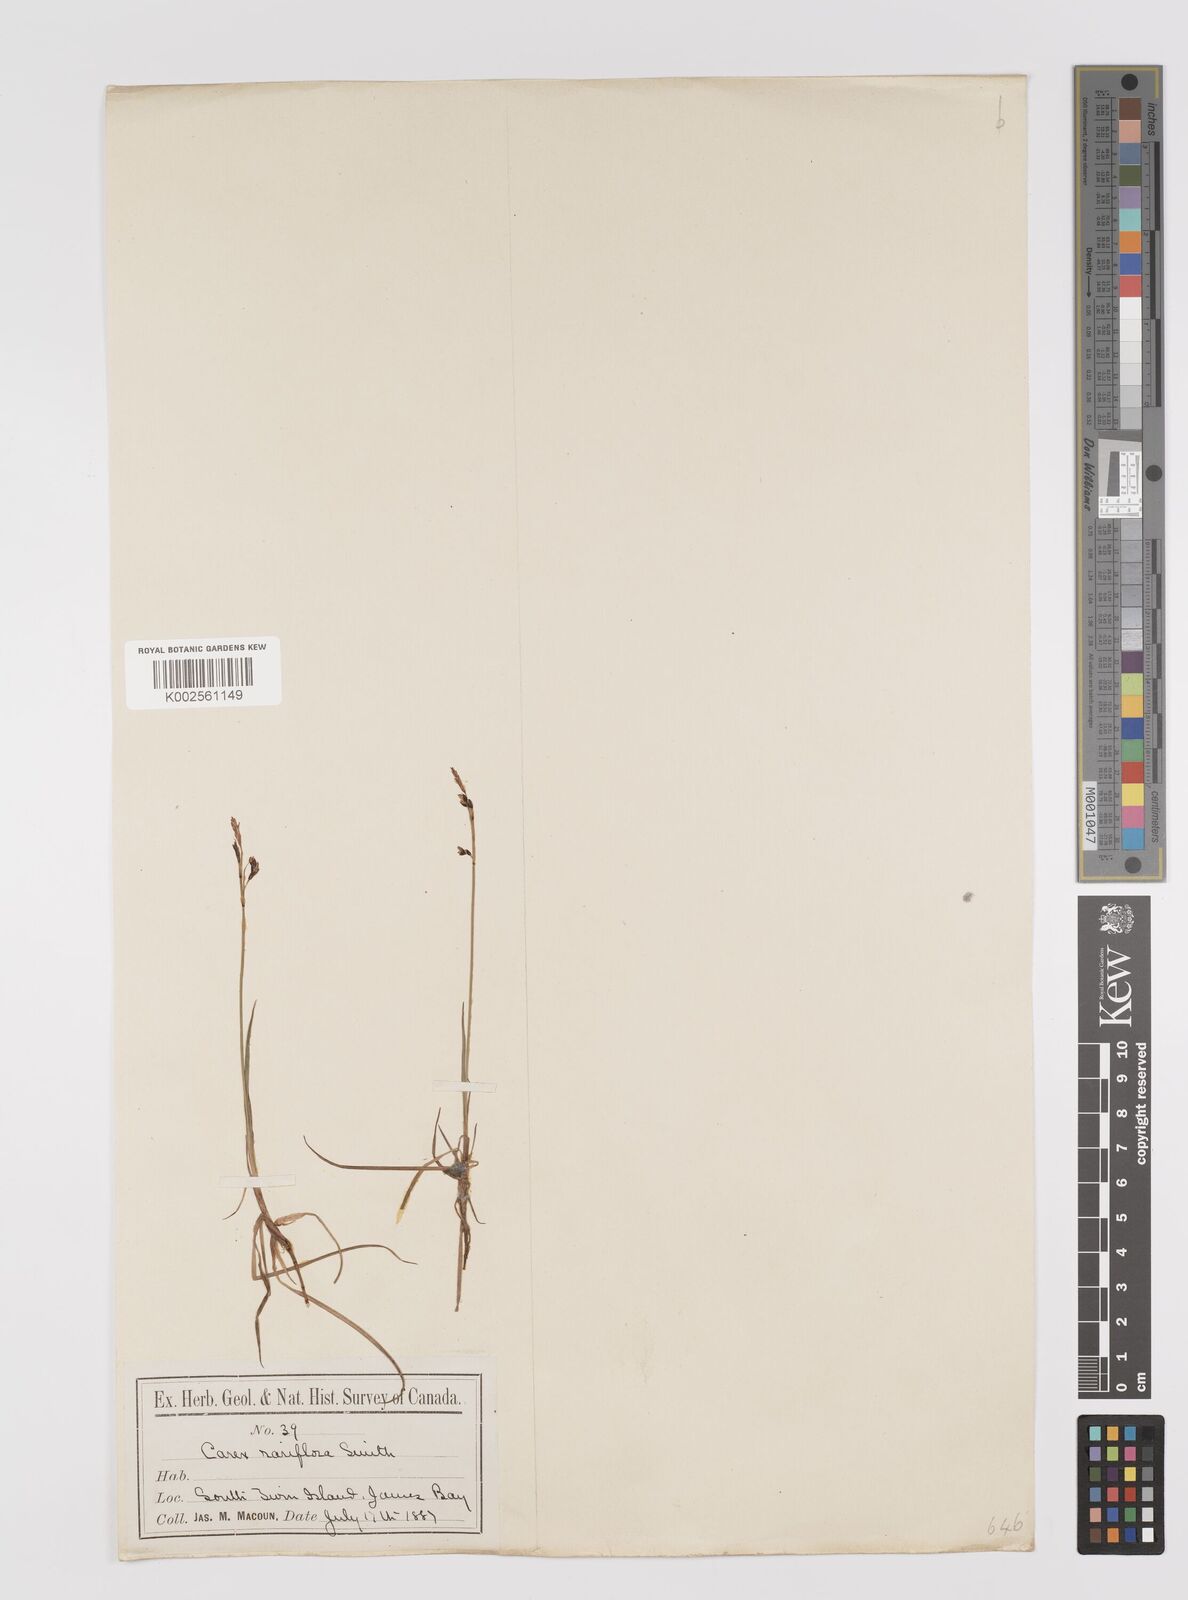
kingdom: Plantae
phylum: Tracheophyta
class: Liliopsida
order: Poales
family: Cyperaceae
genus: Carex
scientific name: Carex rariflora
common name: Loose-flowered alpine sedge
